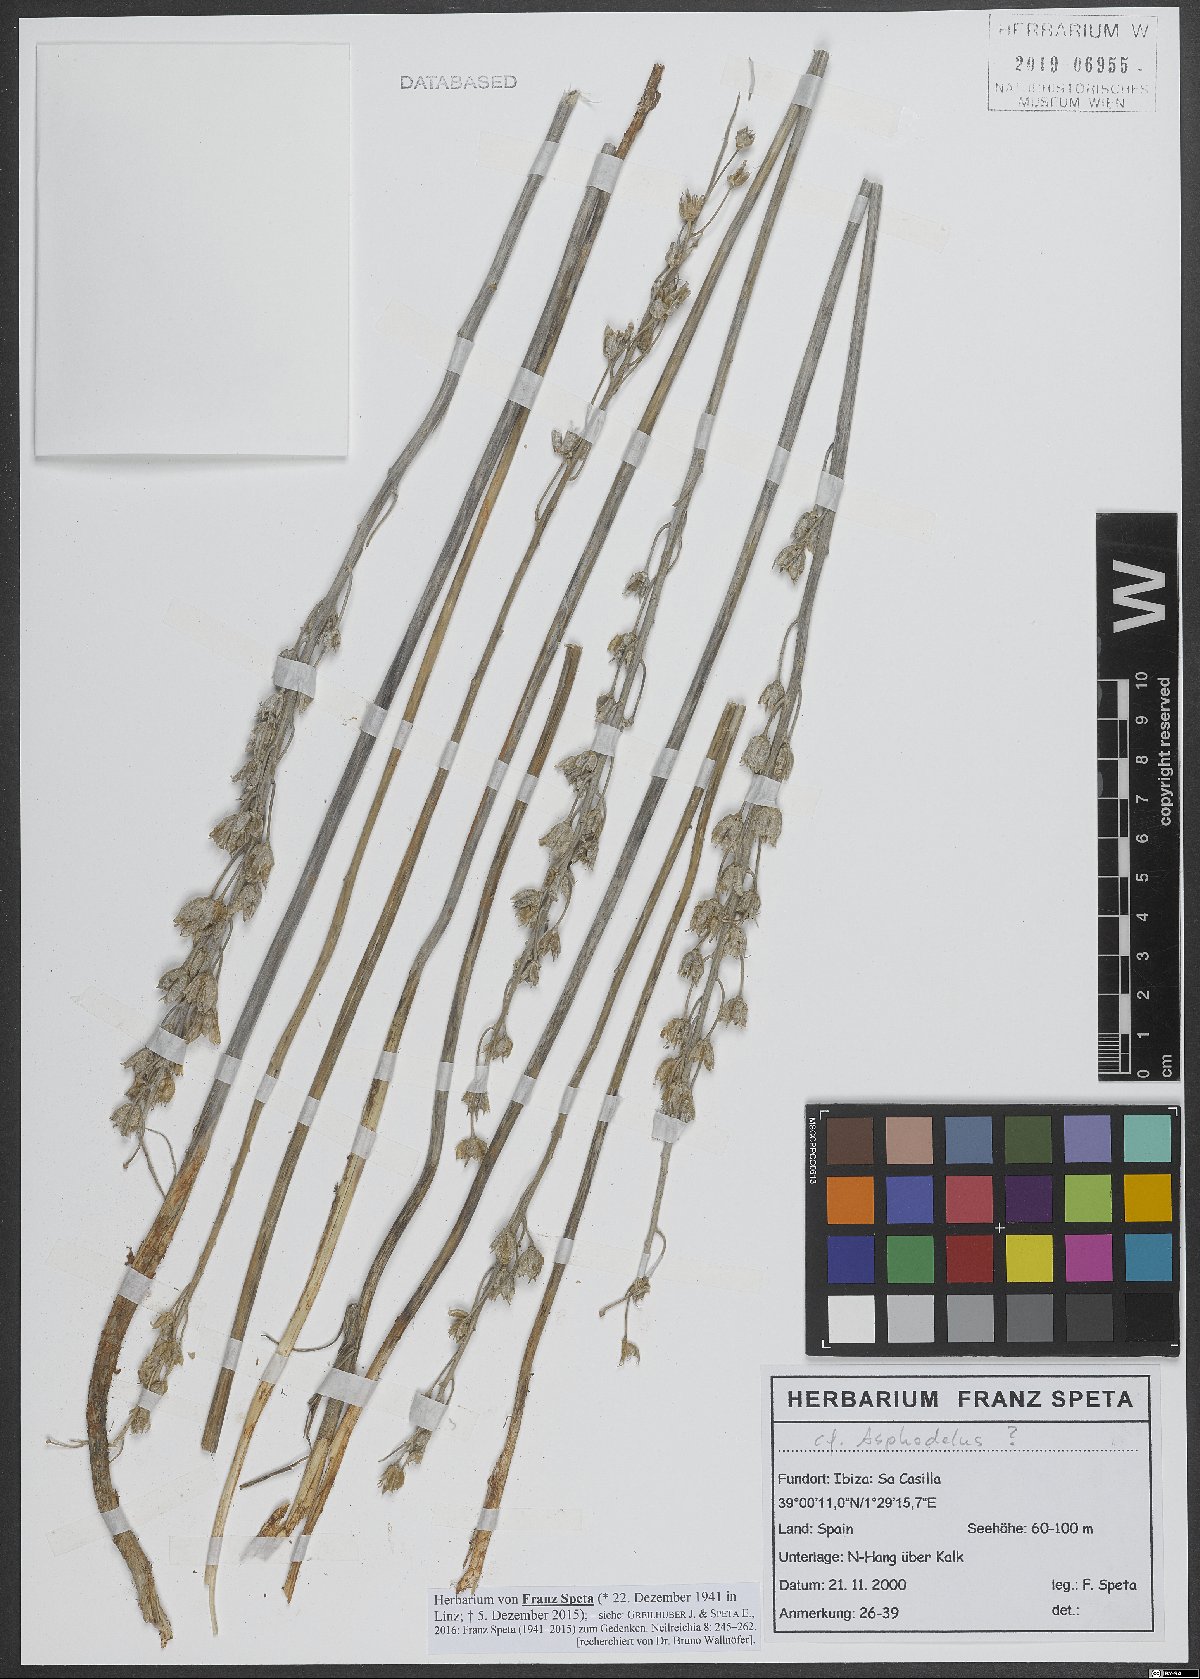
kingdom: Plantae
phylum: Tracheophyta
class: Liliopsida
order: Asparagales
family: Asphodelaceae
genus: Asphodelus
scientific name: Asphodelus
